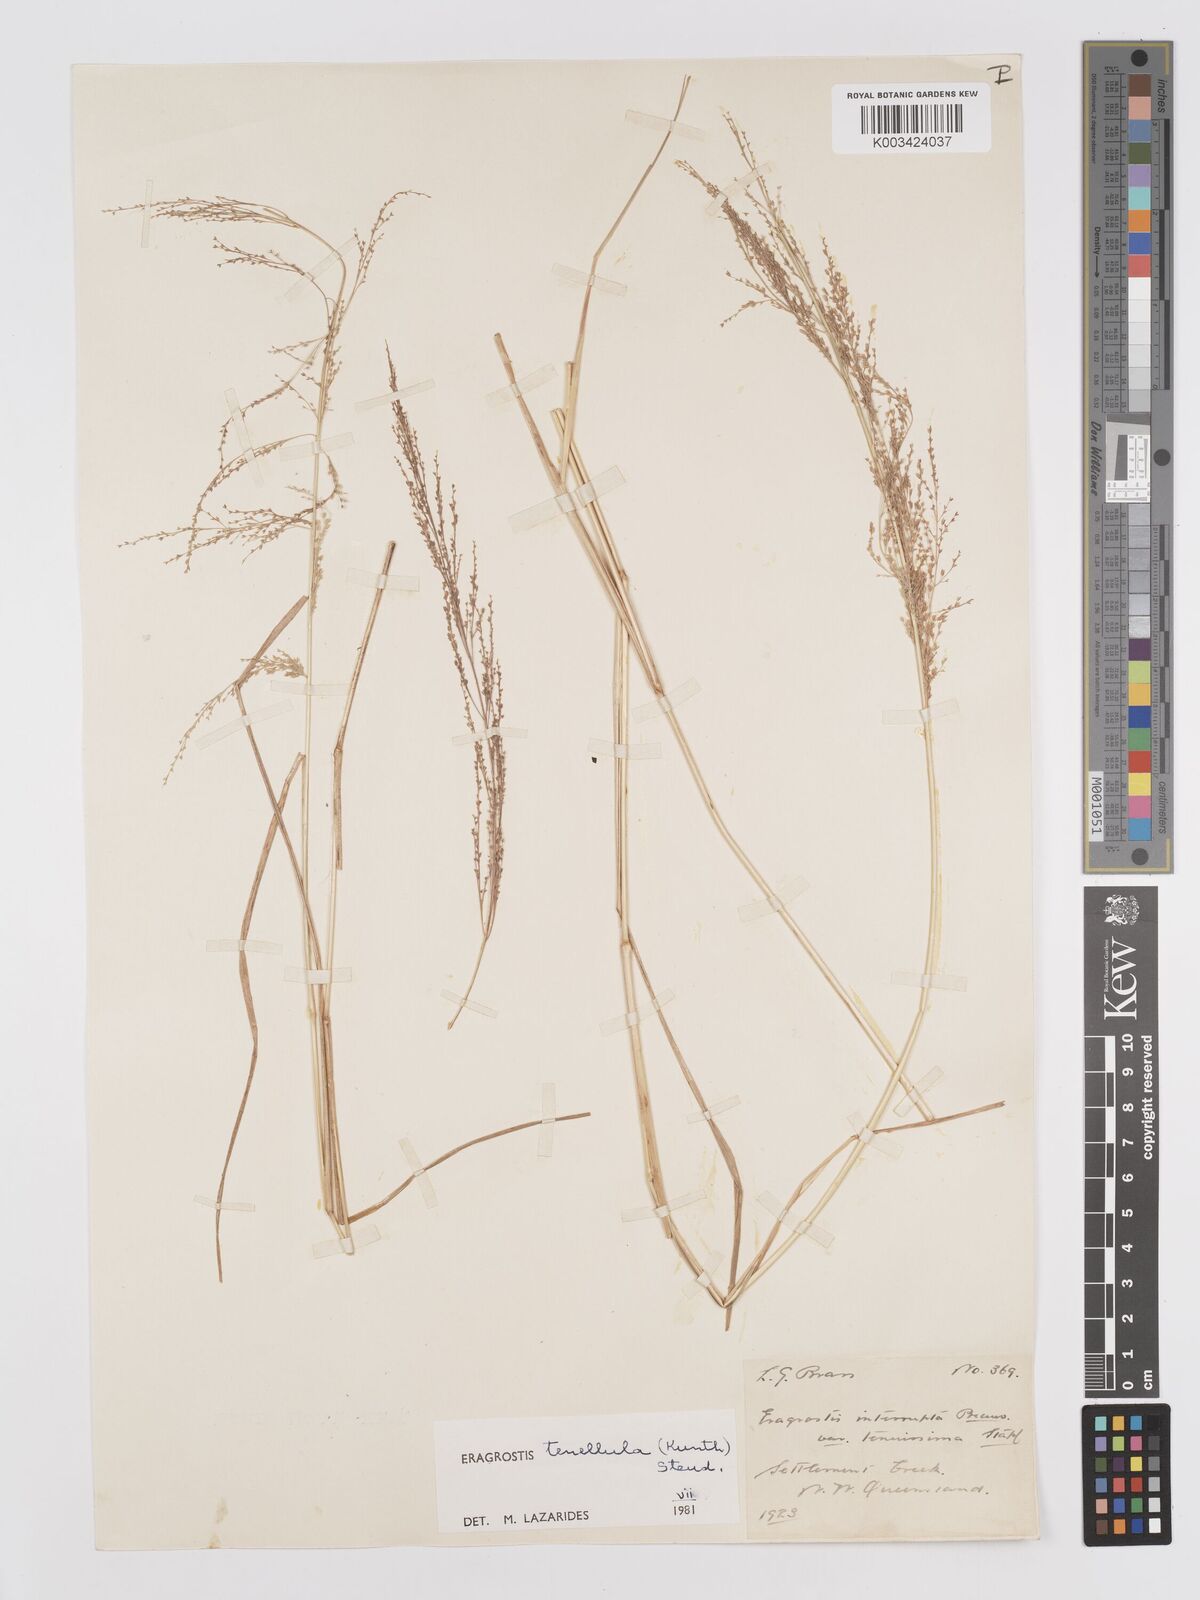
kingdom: Plantae
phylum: Tracheophyta
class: Liliopsida
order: Poales
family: Poaceae
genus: Eragrostis
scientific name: Eragrostis tenellula
